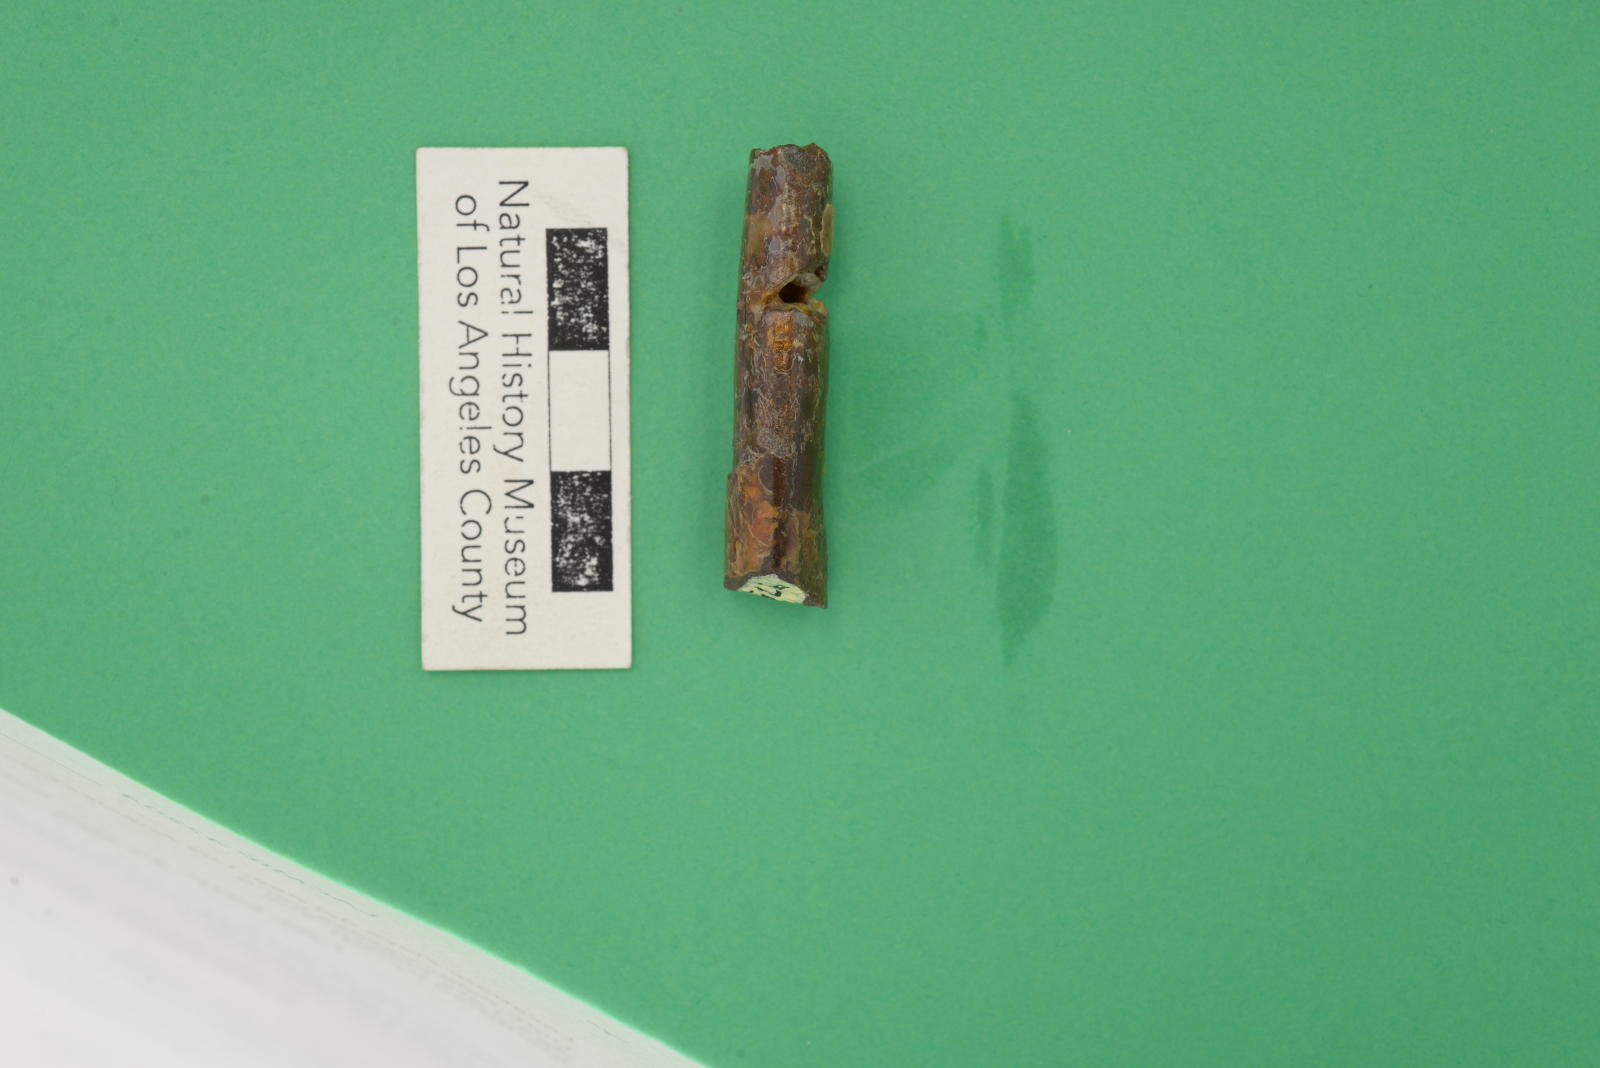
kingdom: Animalia
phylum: Mollusca
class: Cephalopoda
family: Baculitidae
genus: Baculites
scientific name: Baculites schencki
